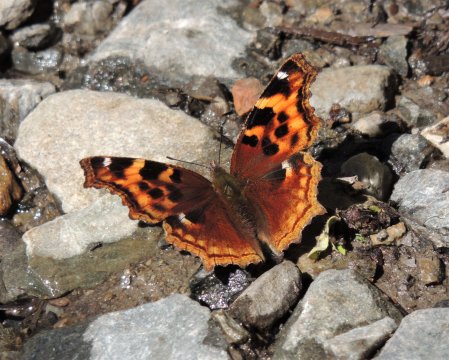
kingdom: Animalia
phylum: Arthropoda
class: Insecta
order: Lepidoptera
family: Nymphalidae
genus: Polygonia
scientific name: Polygonia vaualbum
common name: Compton Tortoiseshell
